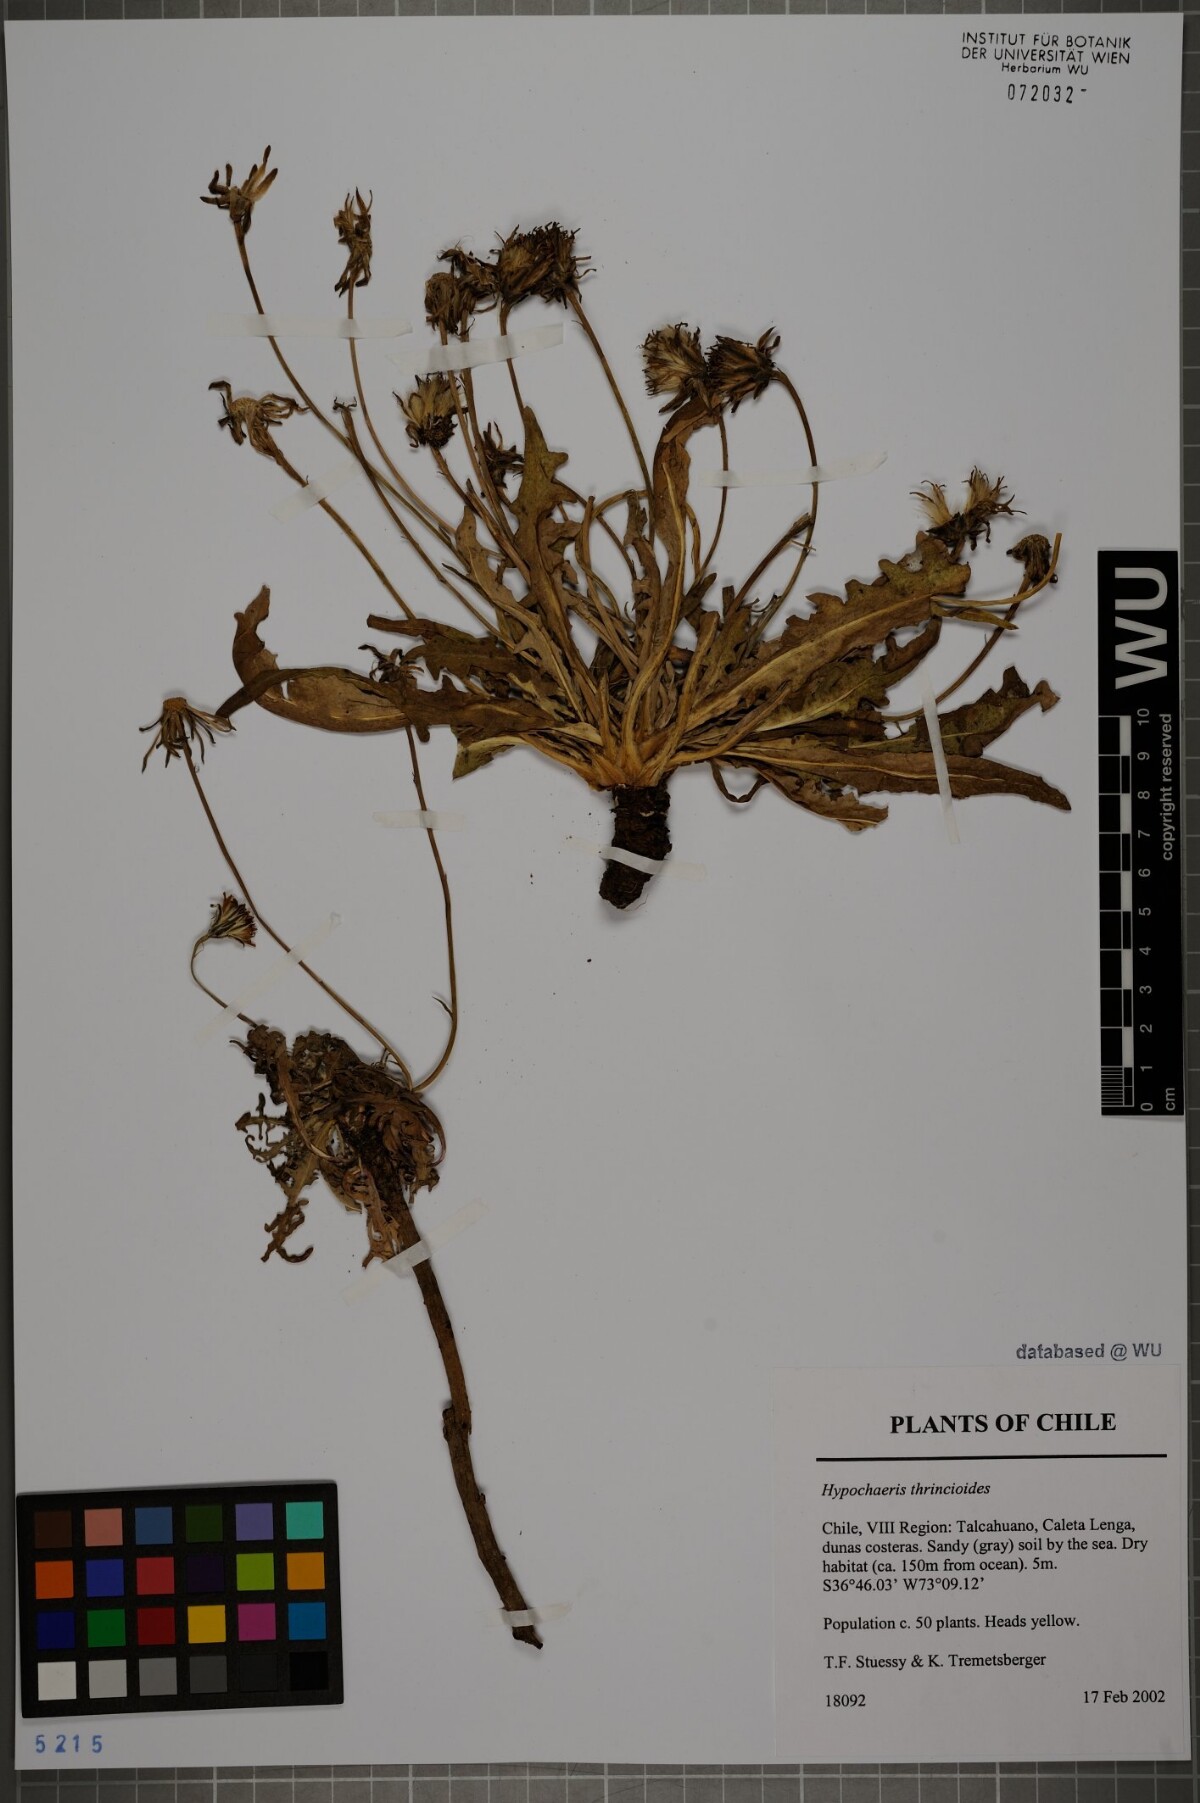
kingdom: Plantae
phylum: Tracheophyta
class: Magnoliopsida
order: Asterales
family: Asteraceae
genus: Hypochaeris
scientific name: Hypochaeris apargioides
